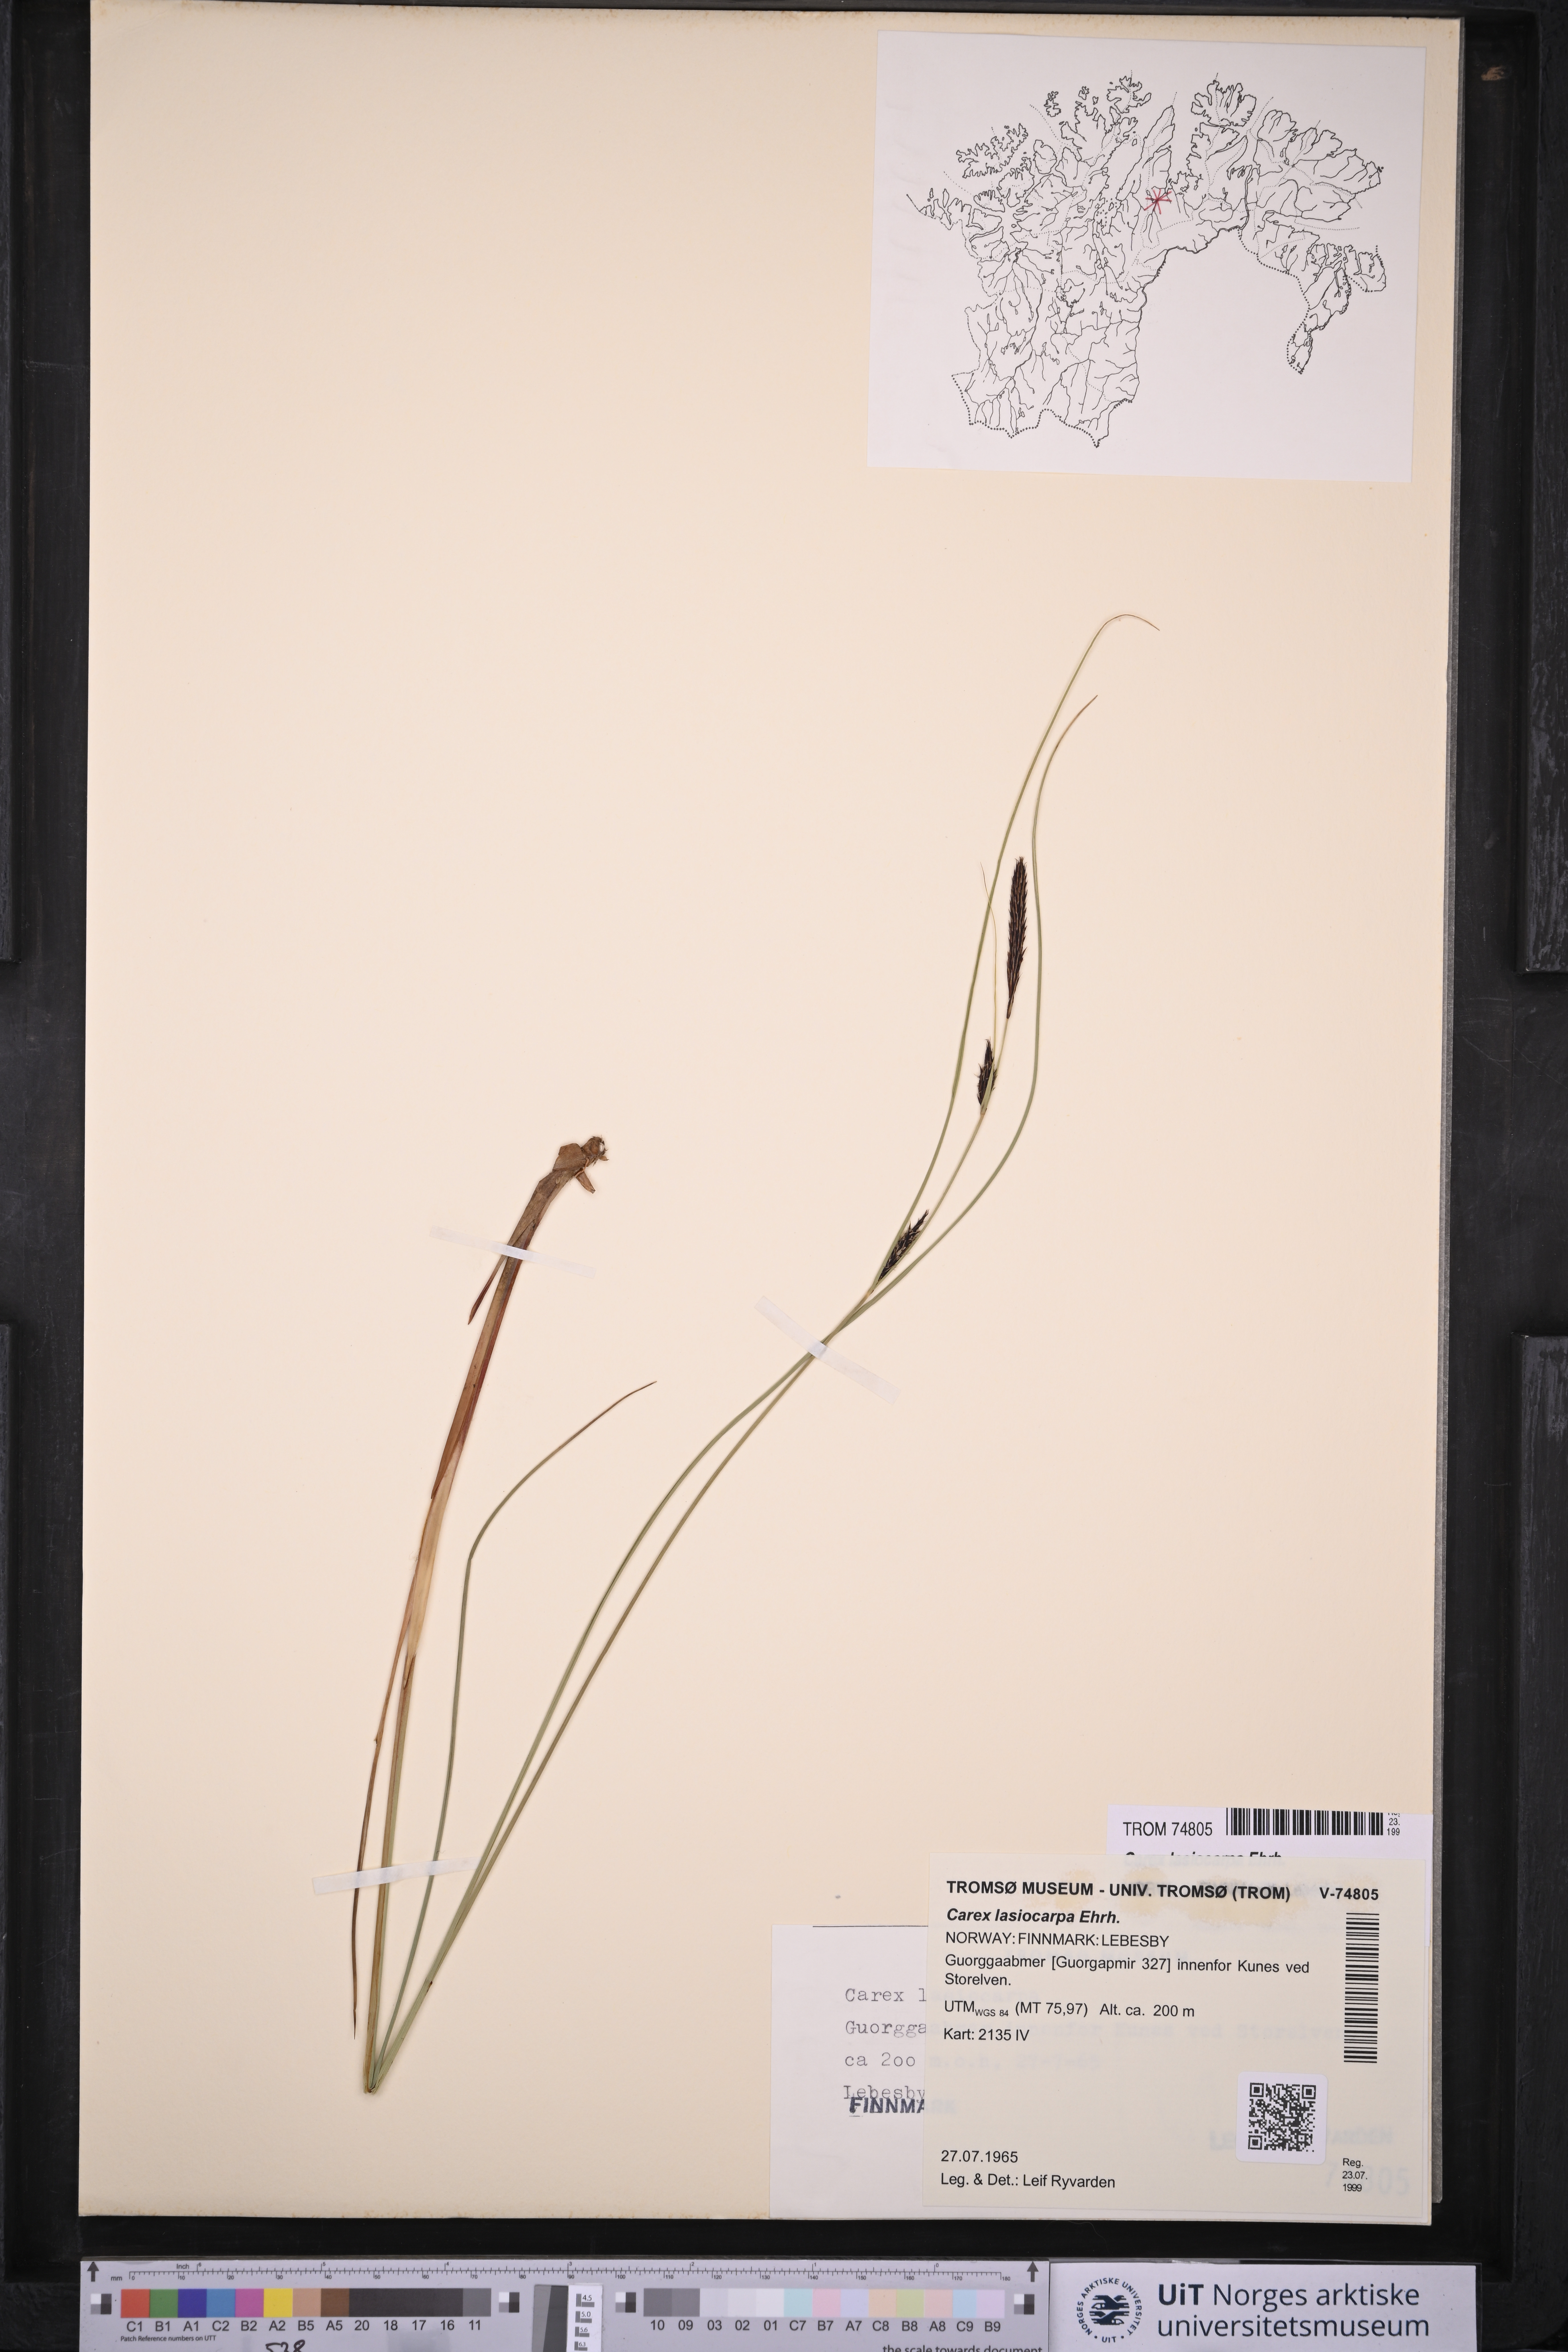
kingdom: Plantae
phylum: Tracheophyta
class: Liliopsida
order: Poales
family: Cyperaceae
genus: Carex
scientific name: Carex lasiocarpa
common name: Slender sedge
